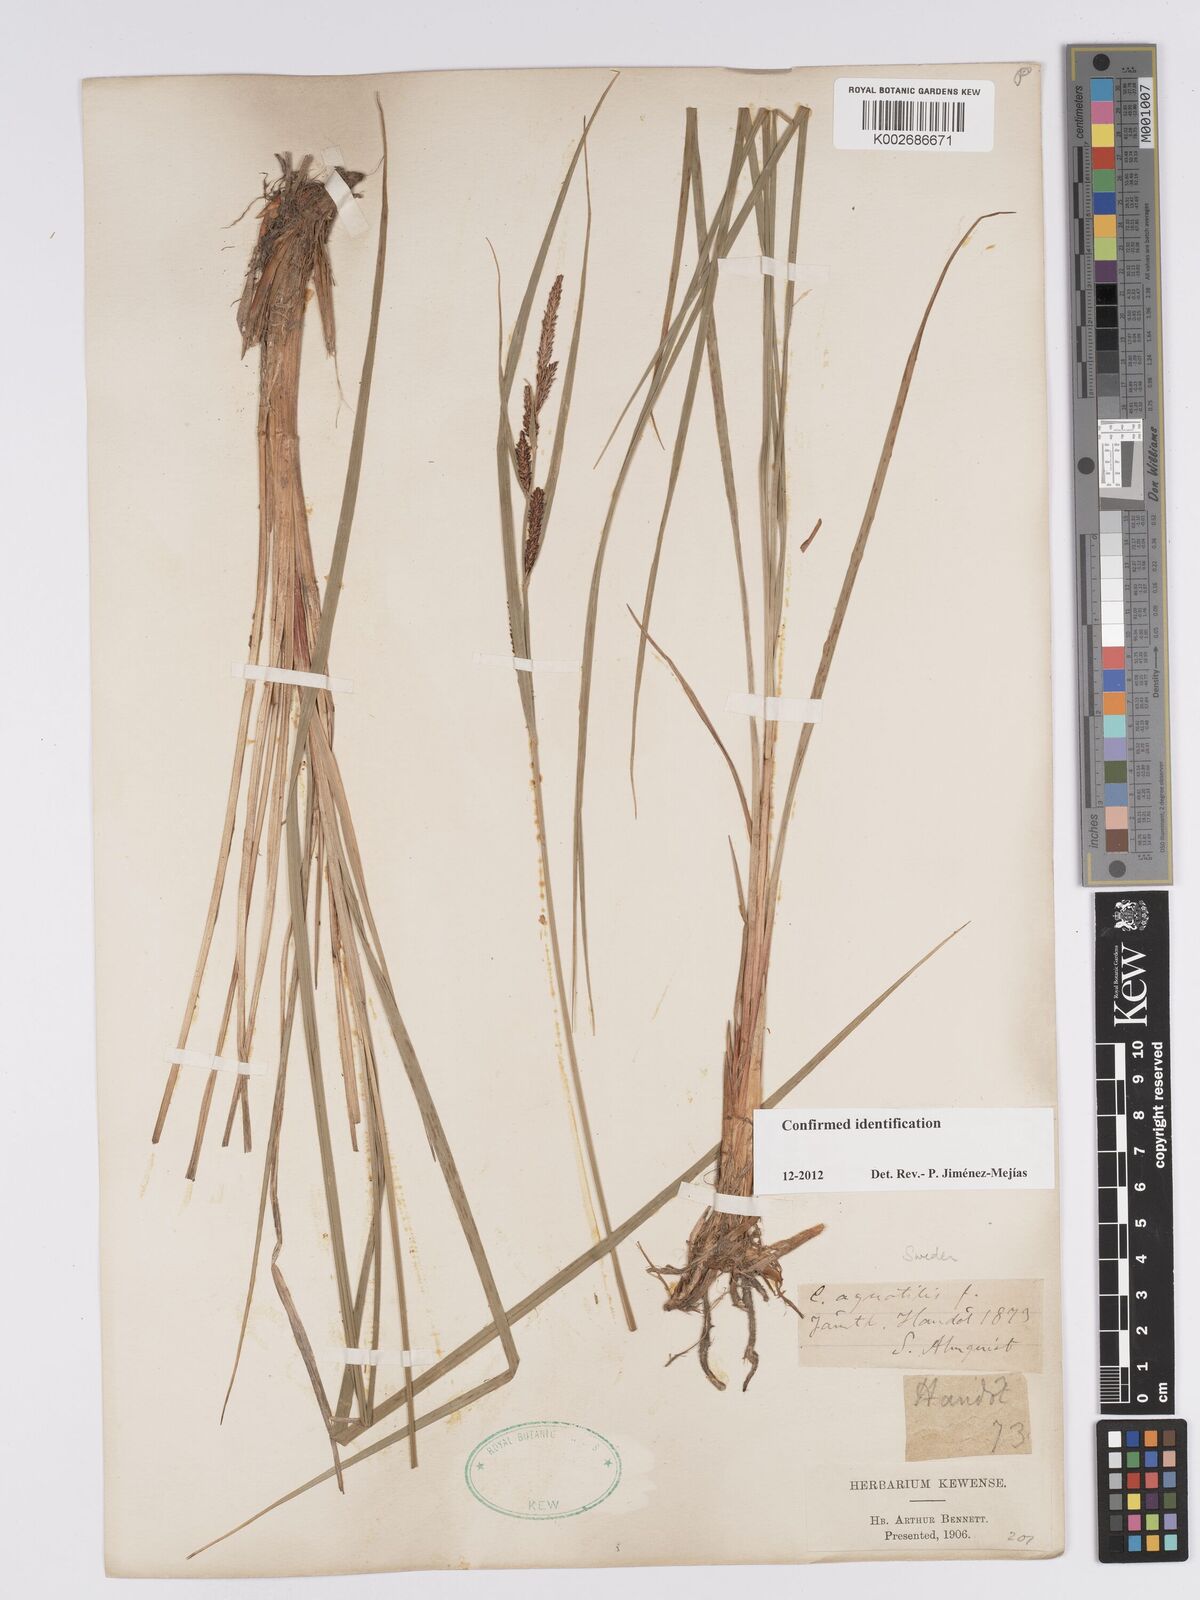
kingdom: Plantae
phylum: Tracheophyta
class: Liliopsida
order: Poales
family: Cyperaceae
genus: Carex
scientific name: Carex aquatilis
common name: Water sedge
